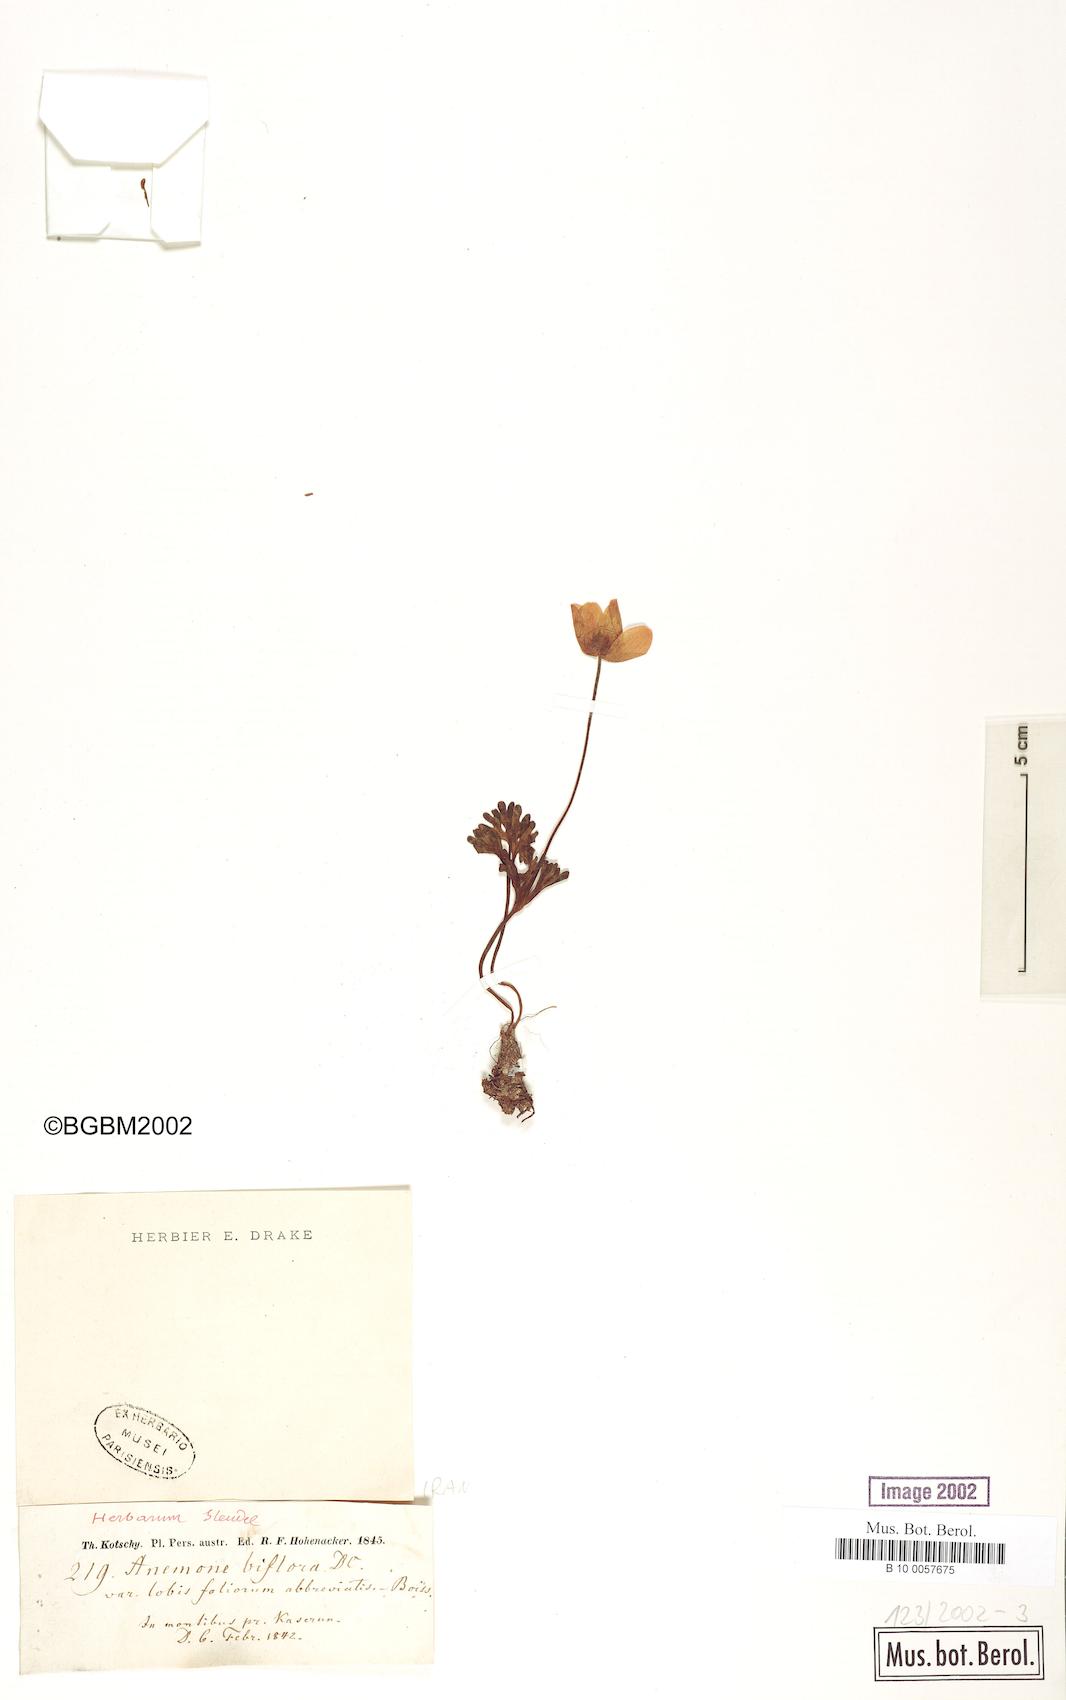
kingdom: Plantae
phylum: Tracheophyta
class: Magnoliopsida
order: Ranunculales
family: Ranunculaceae
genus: Anemone
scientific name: Anemone biflora
